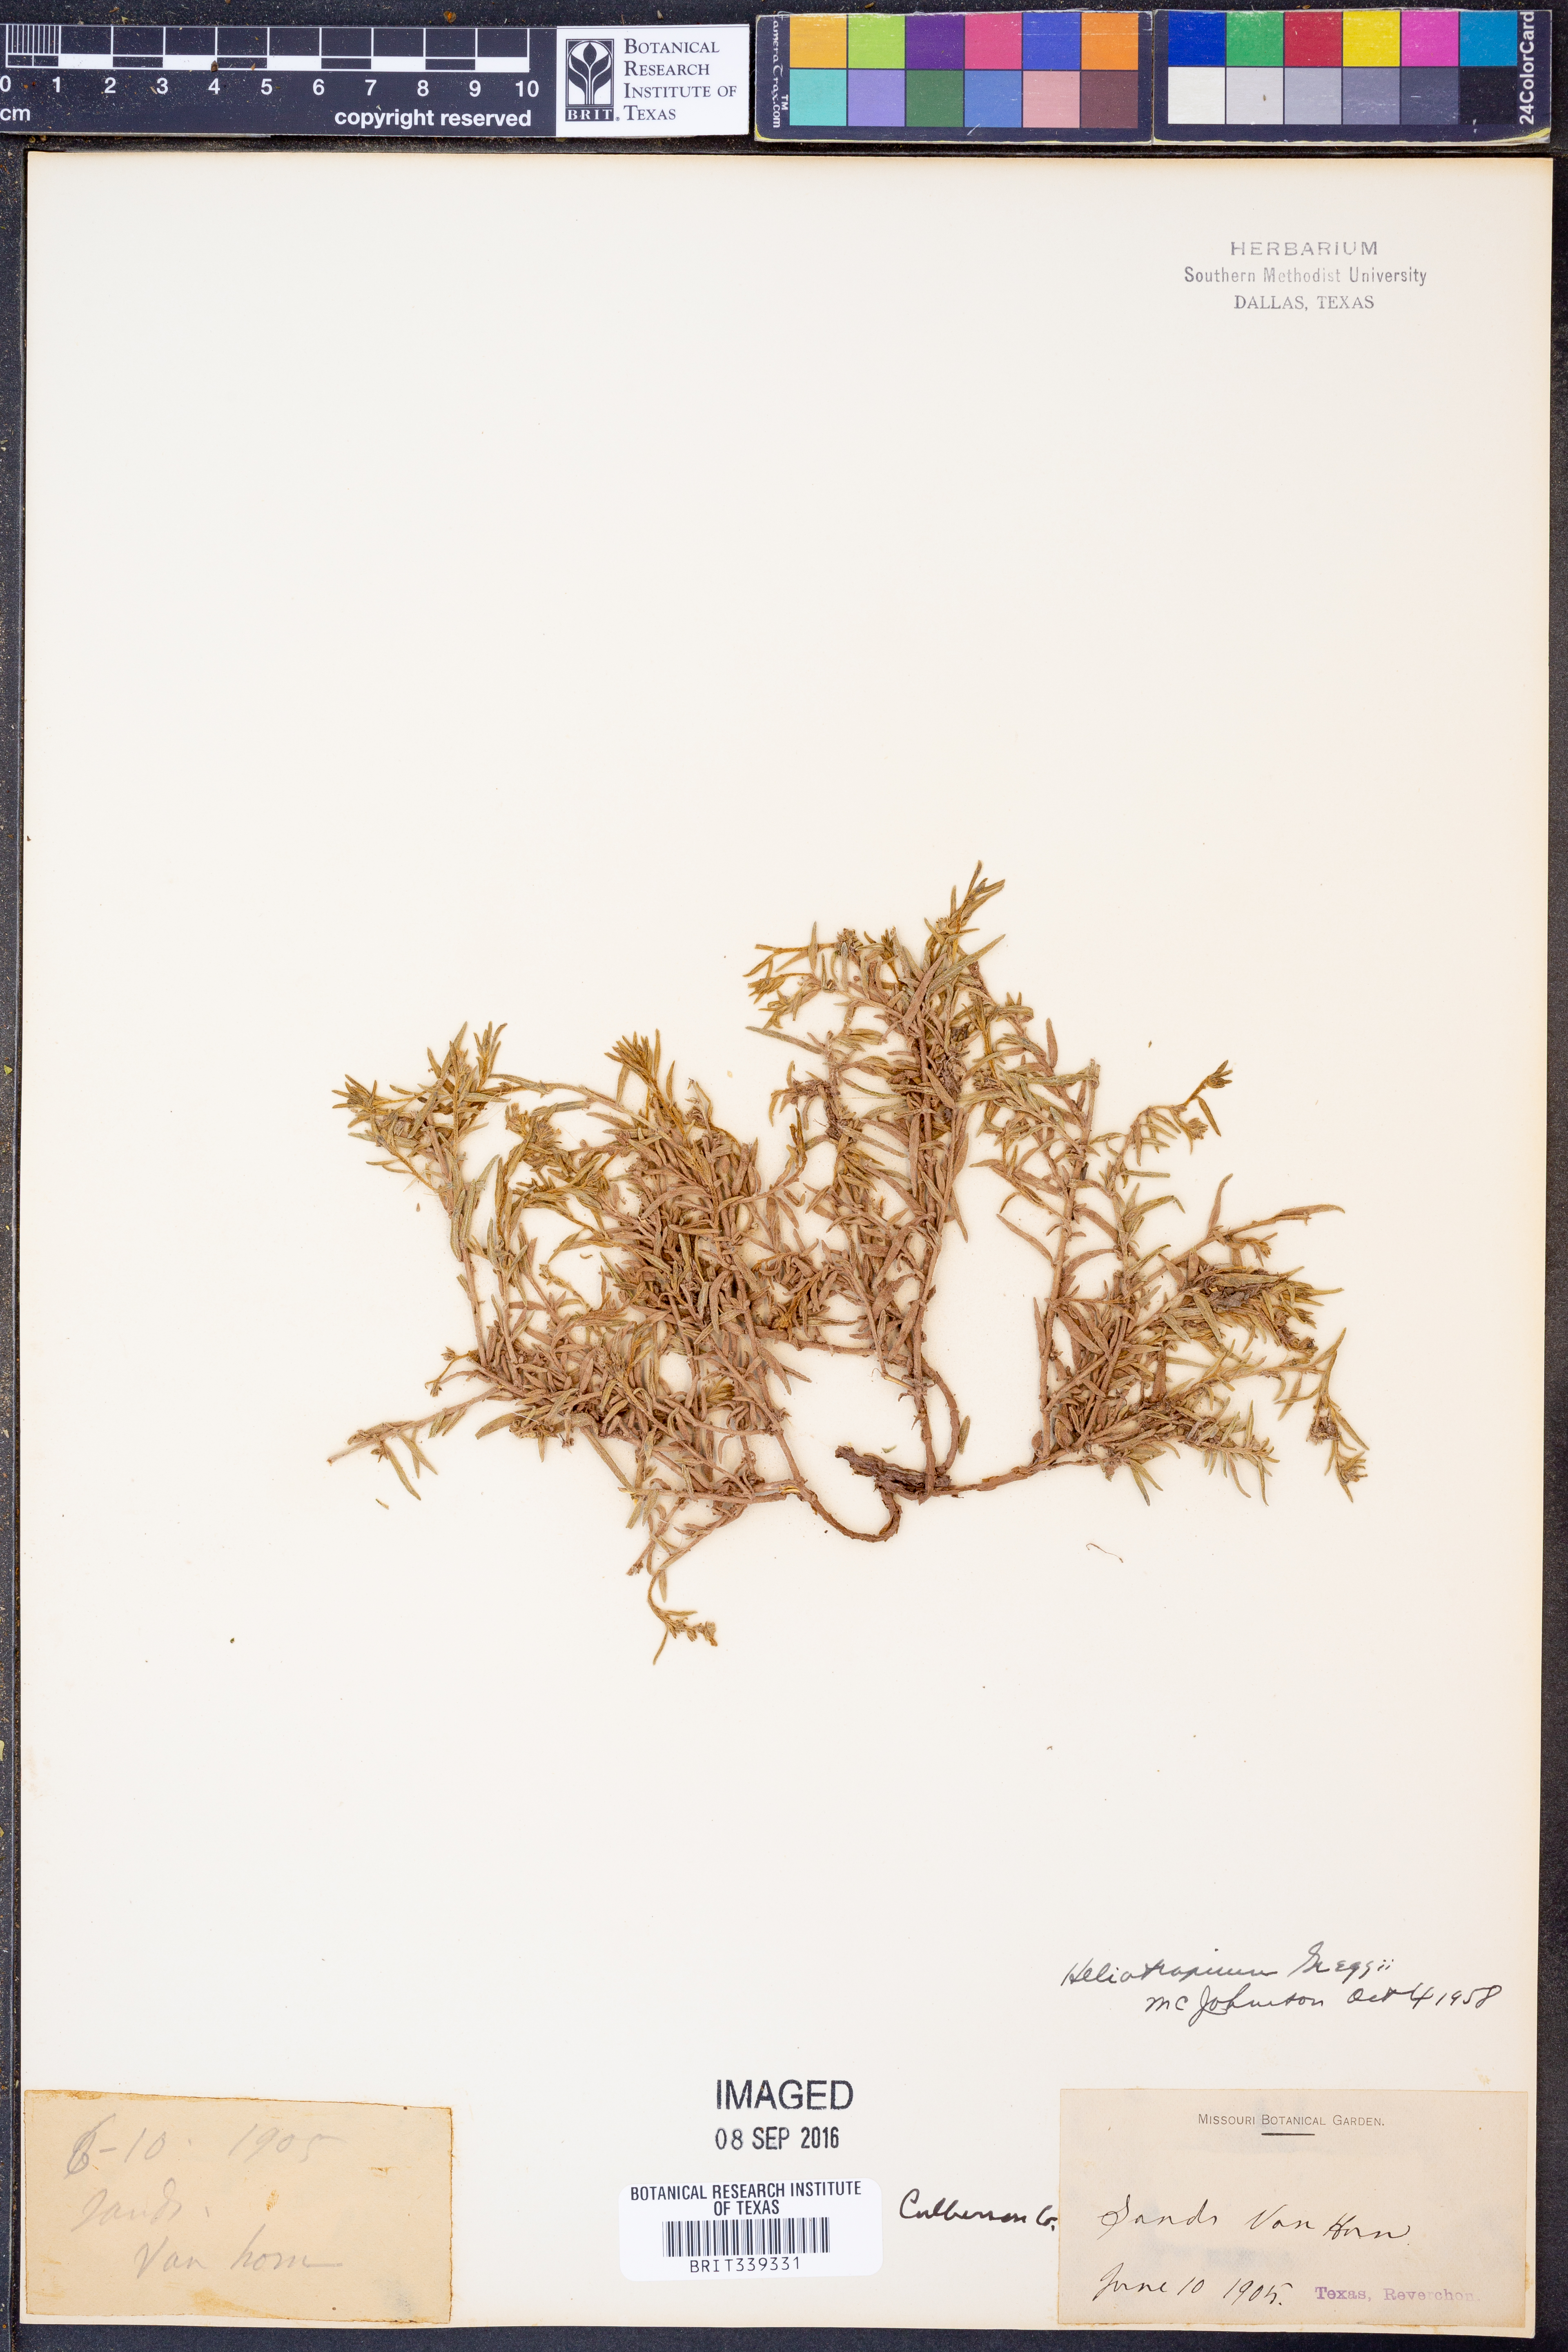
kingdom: Plantae
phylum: Tracheophyta
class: Magnoliopsida
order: Boraginales
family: Heliotropiaceae
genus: Euploca
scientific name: Euploca greggii
